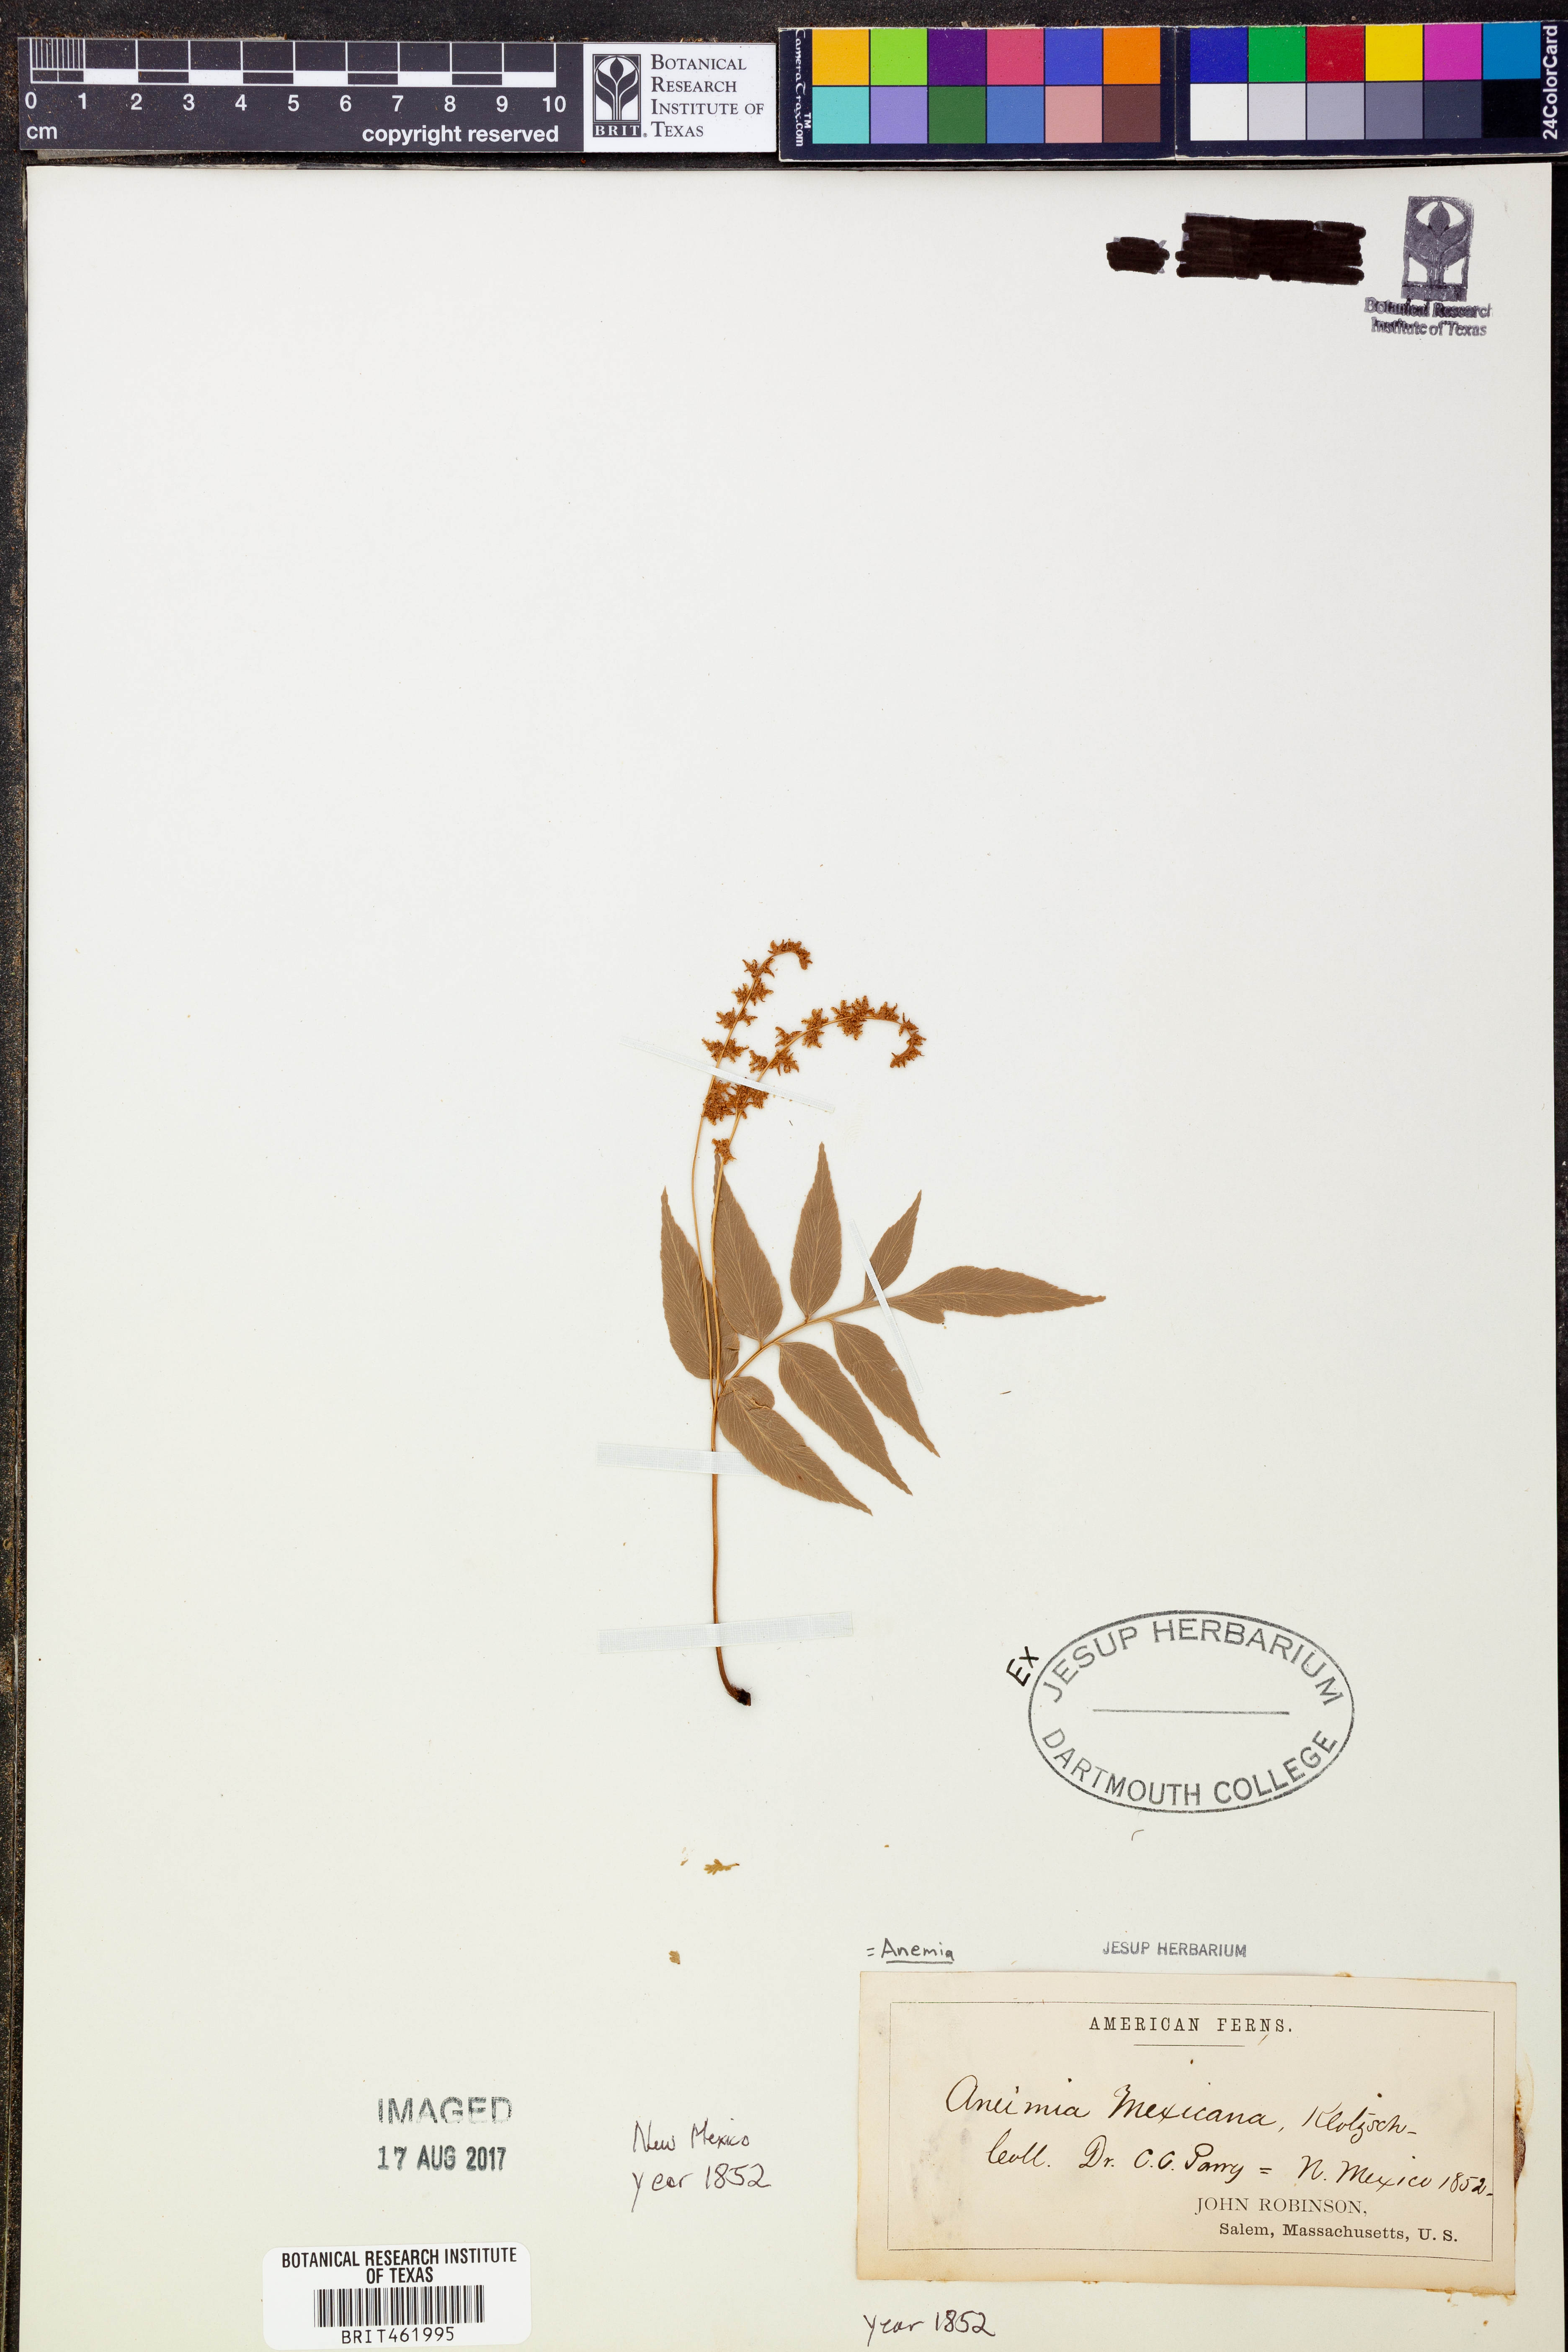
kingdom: Plantae
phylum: Tracheophyta
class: Polypodiopsida
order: Schizaeales
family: Anemiaceae
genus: Anemia
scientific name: Anemia mexicana
